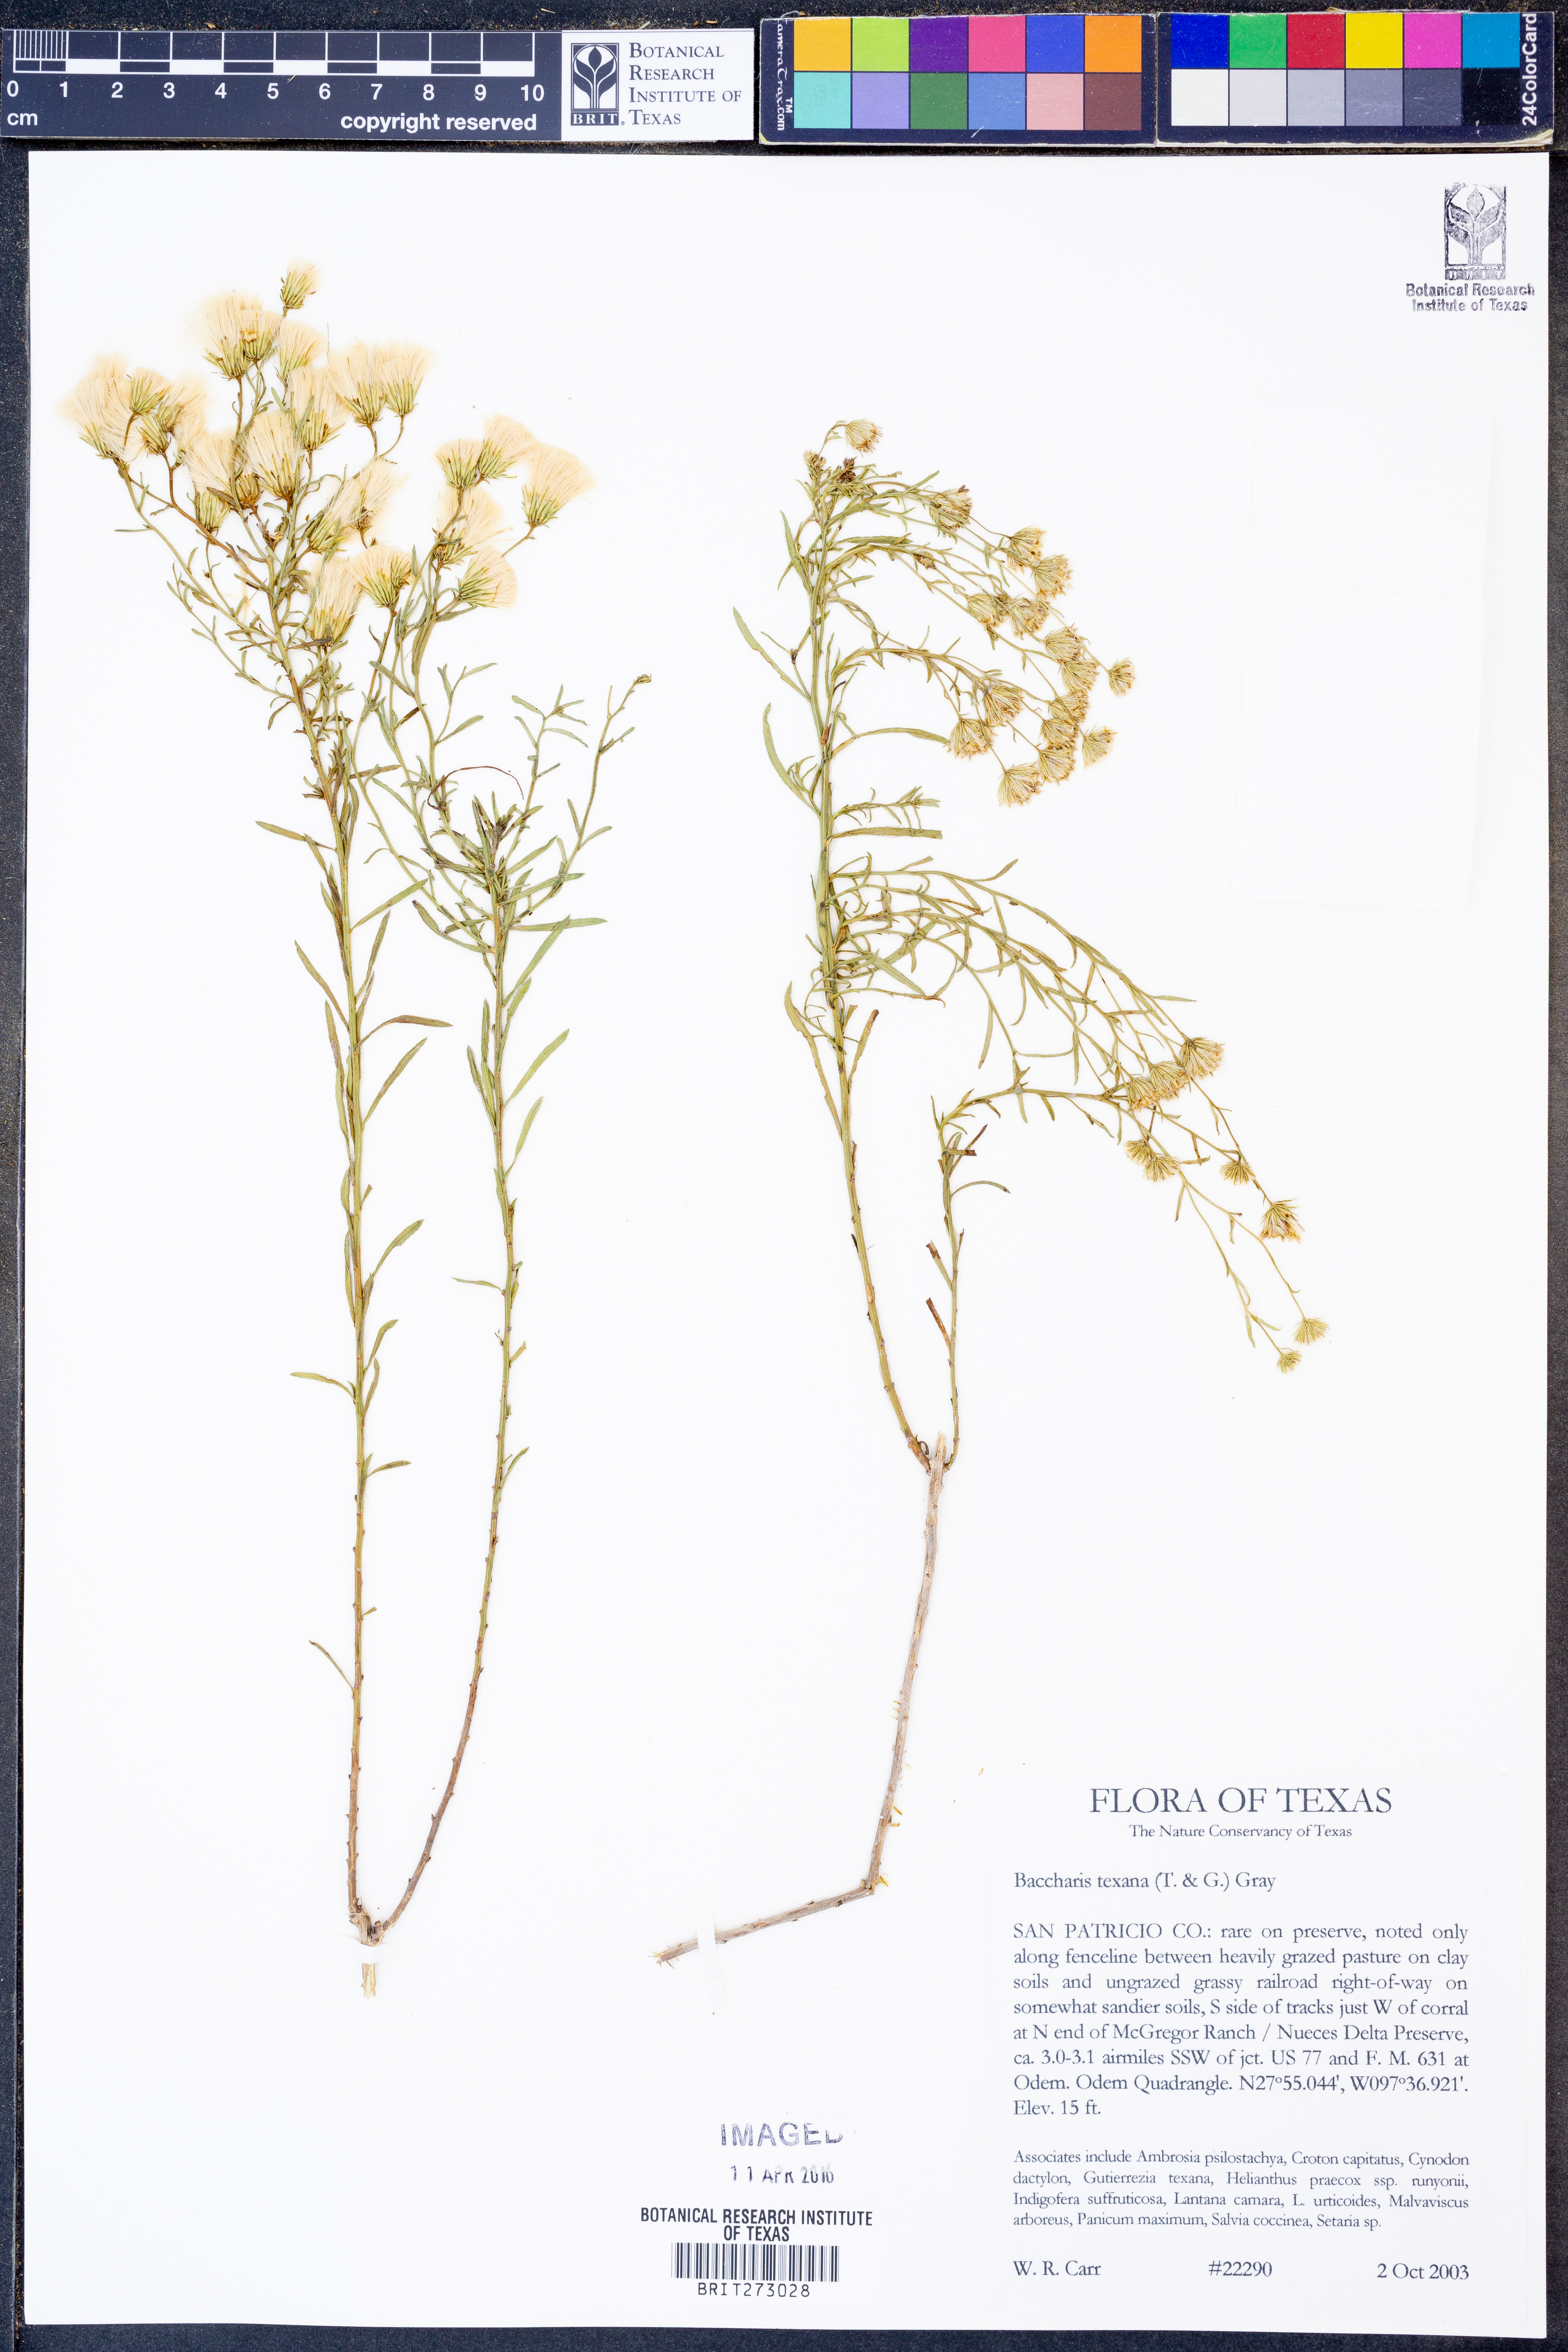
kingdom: Plantae
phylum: Tracheophyta
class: Magnoliopsida
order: Asterales
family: Asteraceae
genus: Baccharis
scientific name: Baccharis texana
